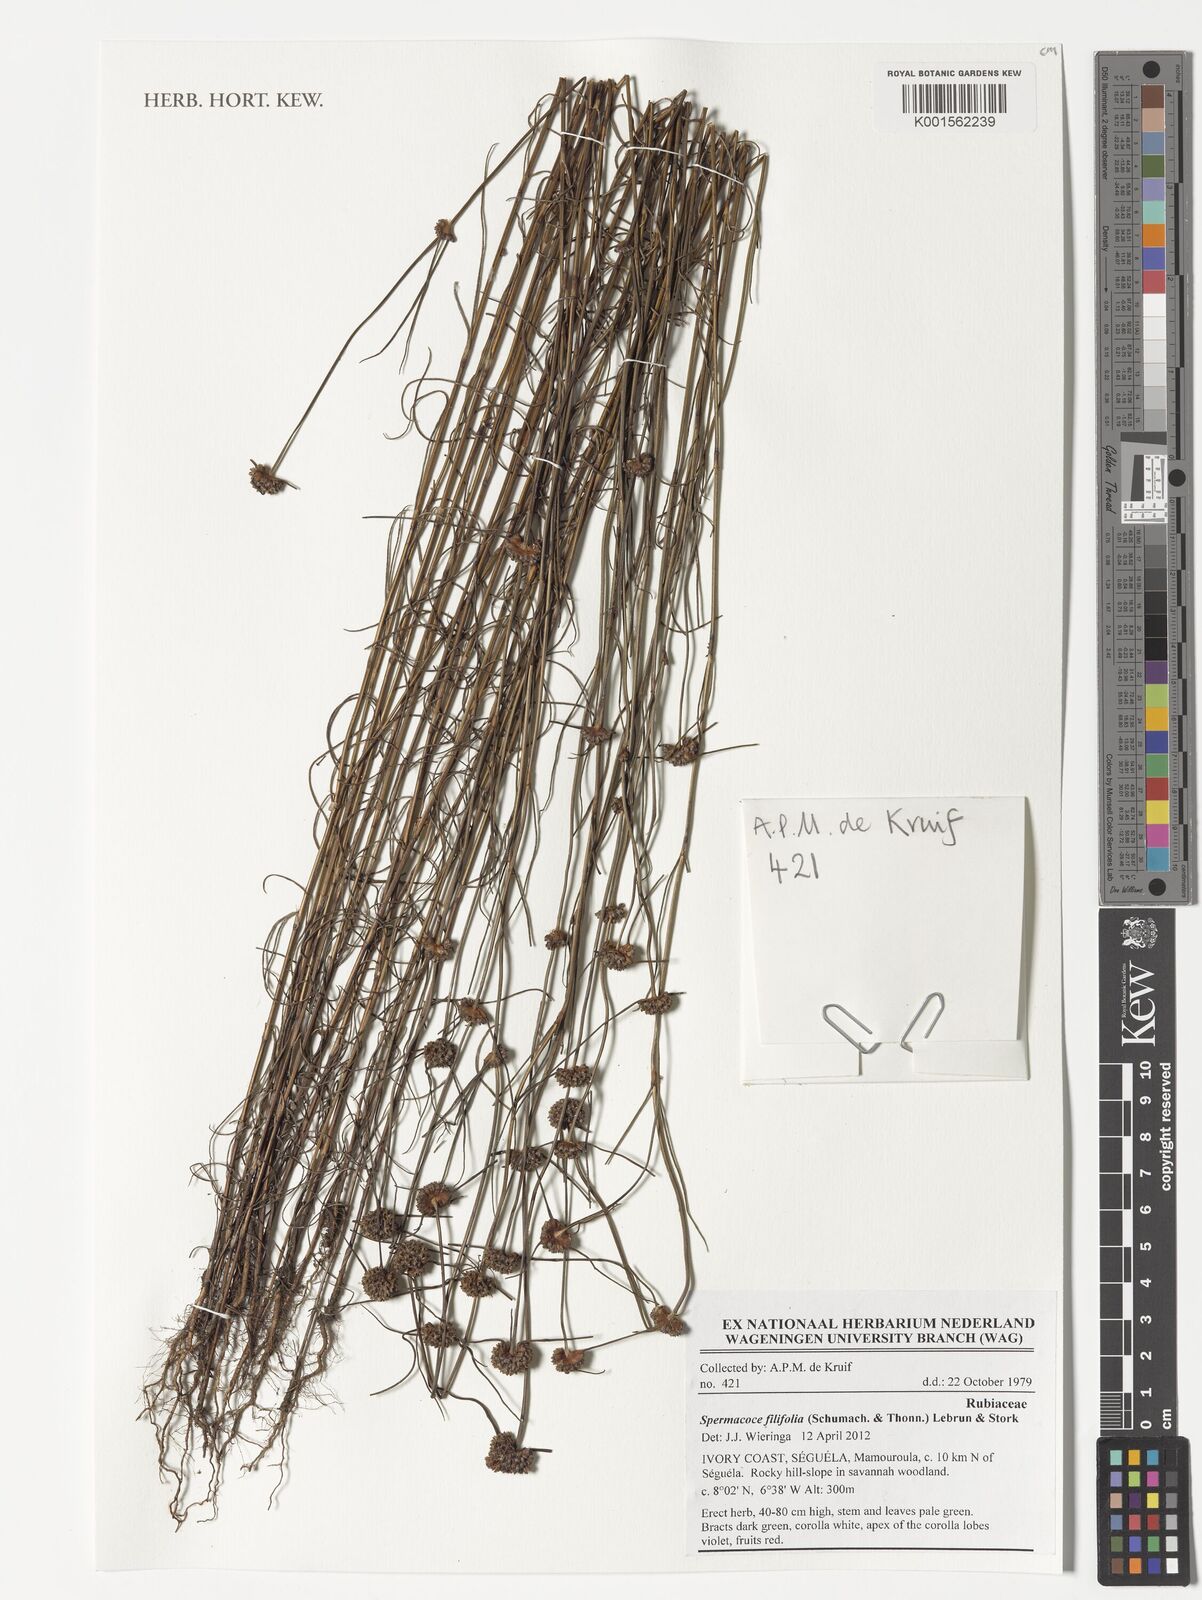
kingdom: Plantae
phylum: Tracheophyta
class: Magnoliopsida
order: Gentianales
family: Rubiaceae
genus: Spermacoce
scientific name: Spermacoce filifolia
